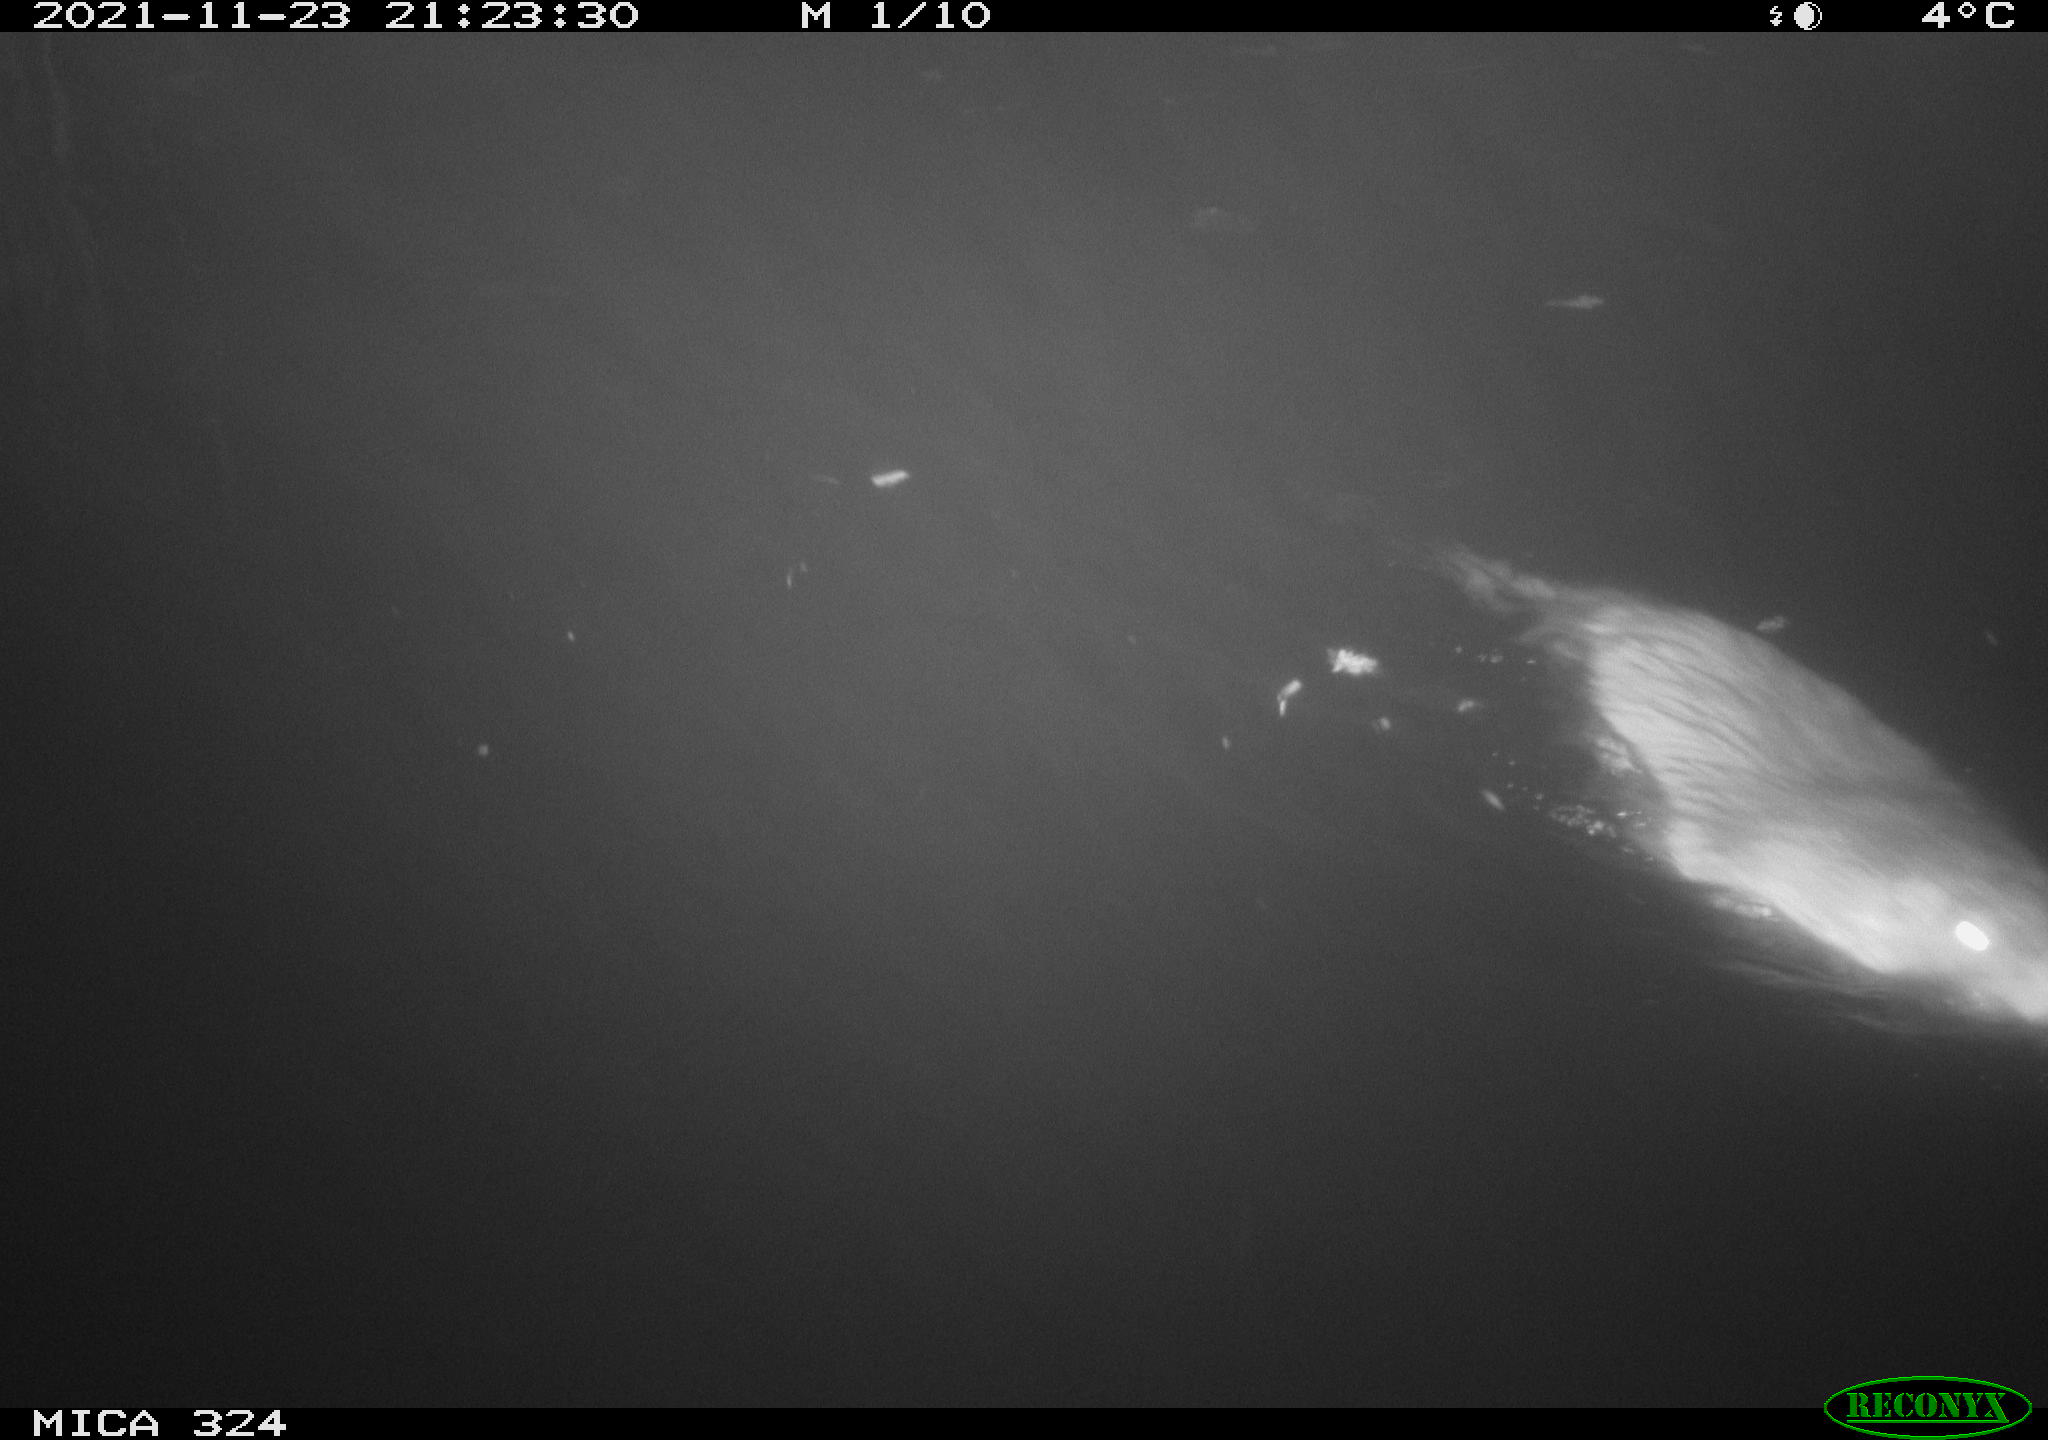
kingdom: Animalia
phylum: Chordata
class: Mammalia
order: Rodentia
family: Myocastoridae
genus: Myocastor
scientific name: Myocastor coypus
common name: Coypu
